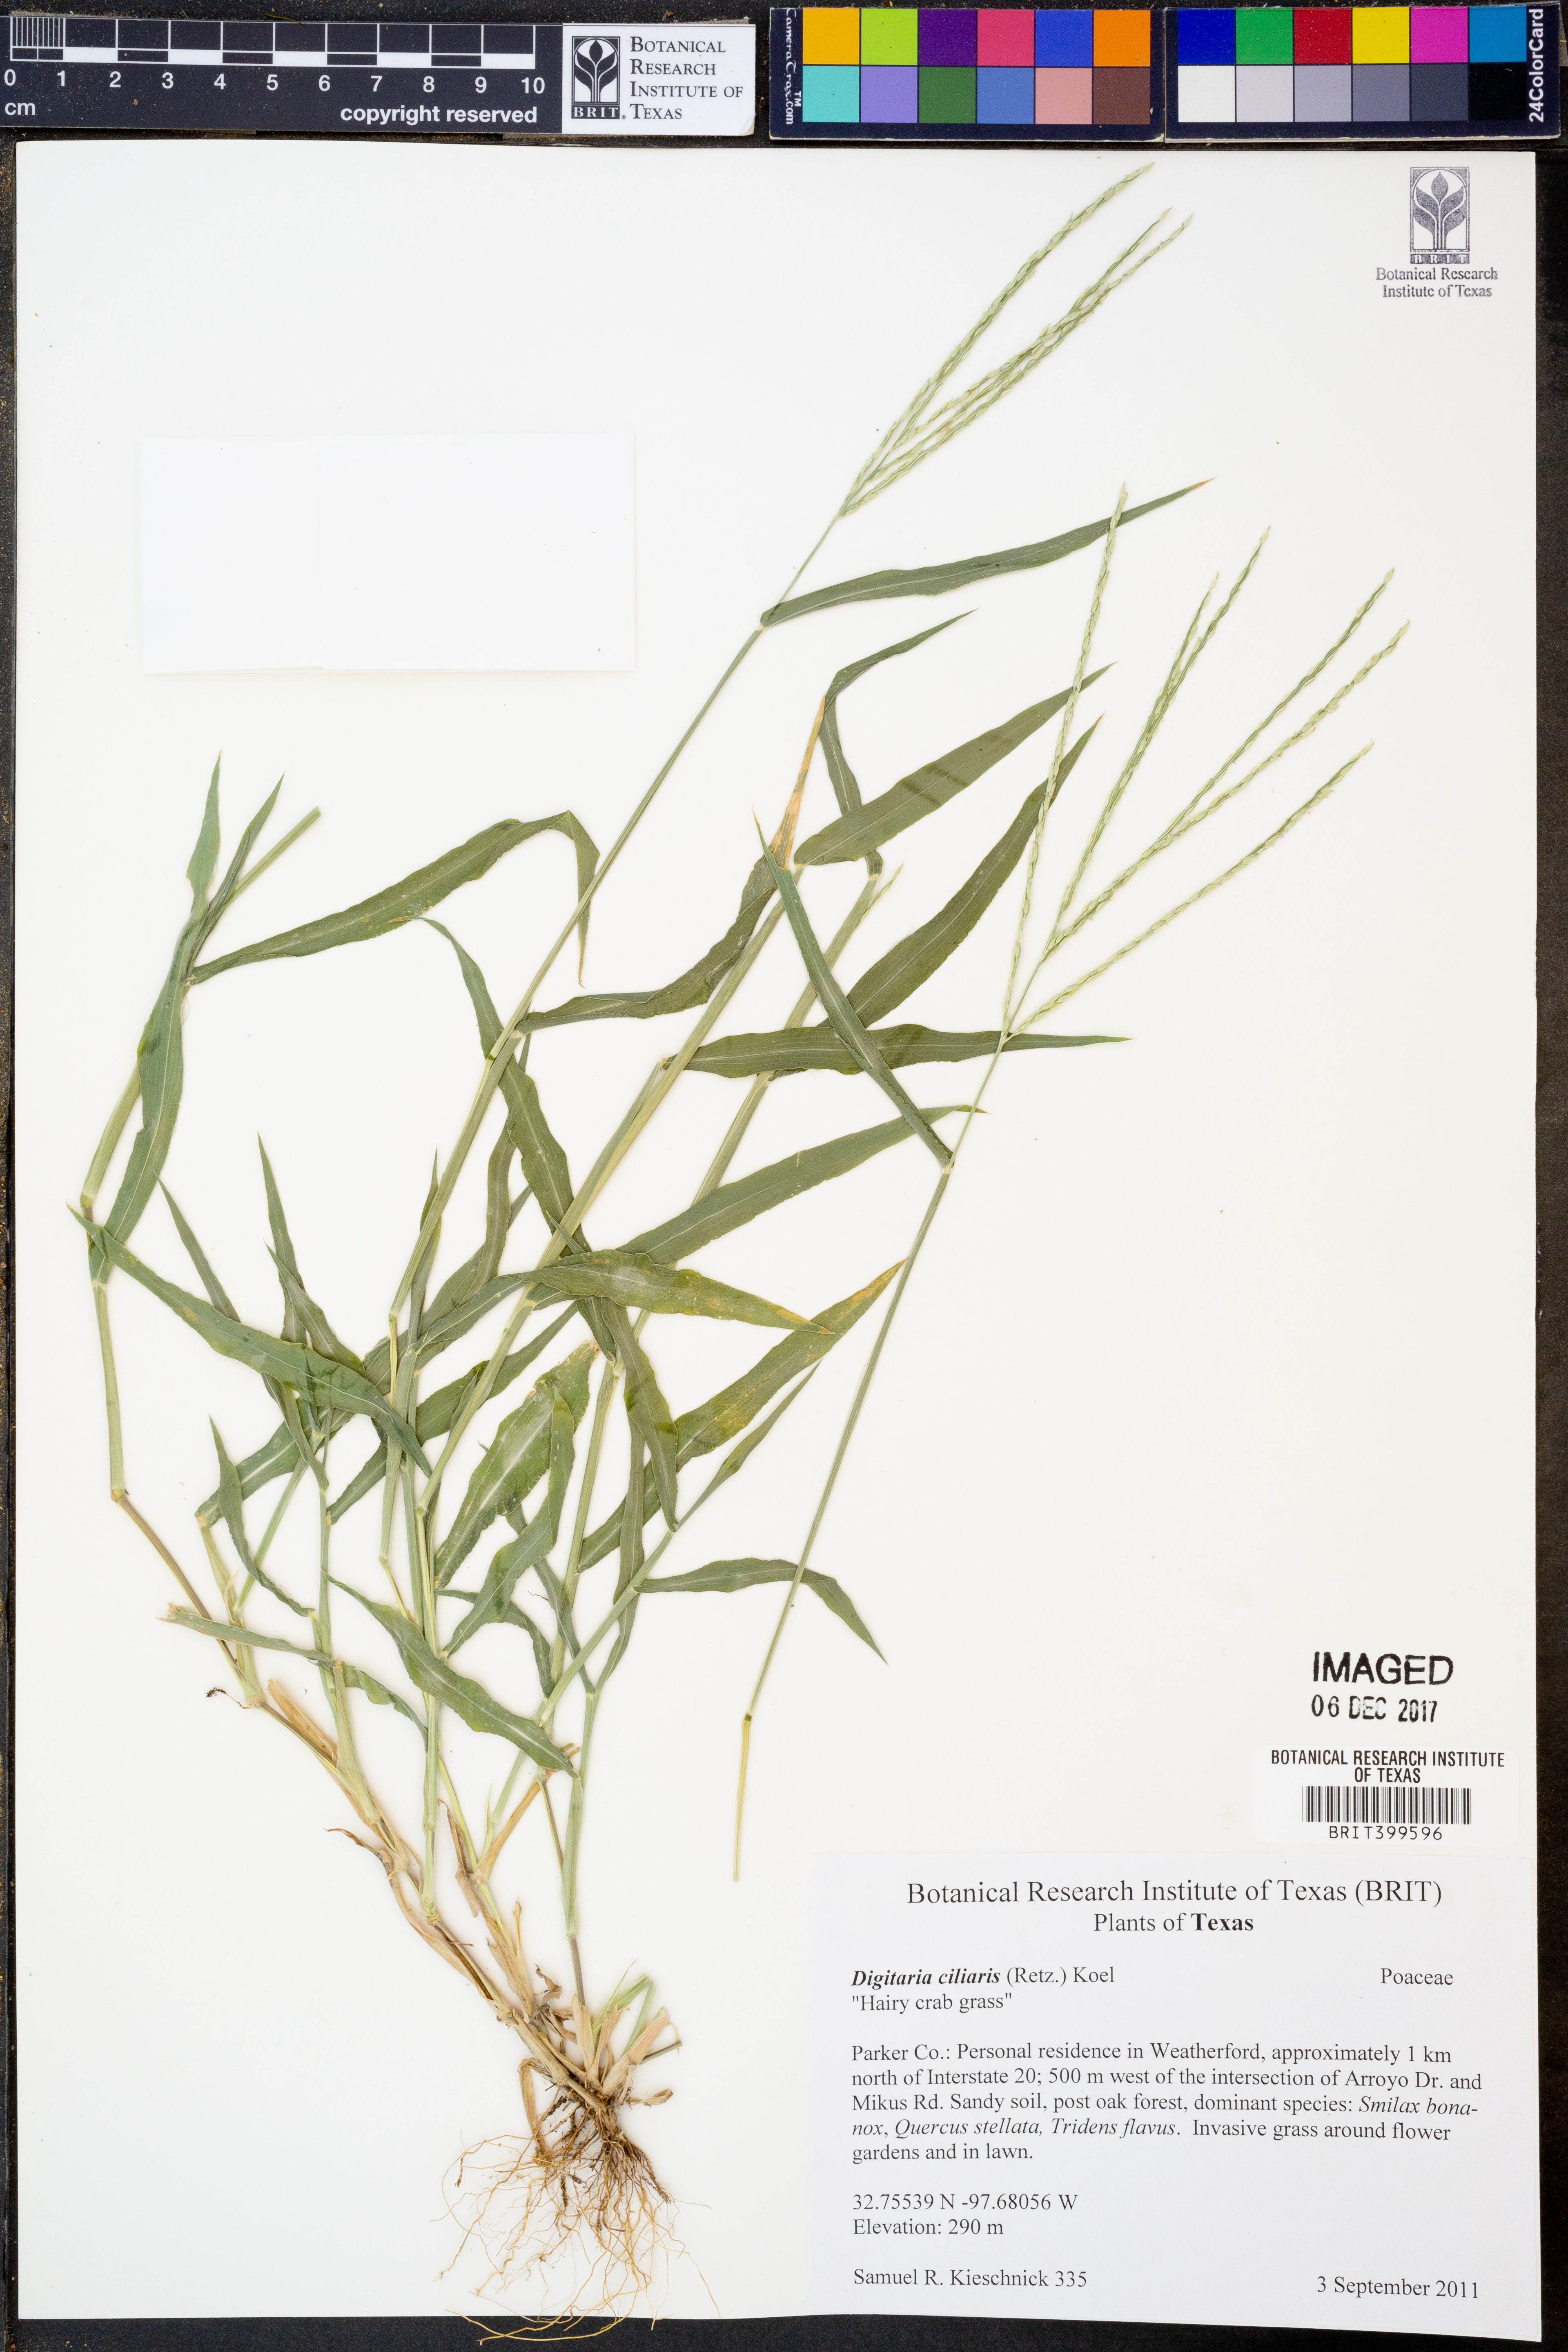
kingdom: Plantae
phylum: Tracheophyta
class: Liliopsida
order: Poales
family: Poaceae
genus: Digitaria
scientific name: Digitaria ciliaris
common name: Tropical finger-grass
